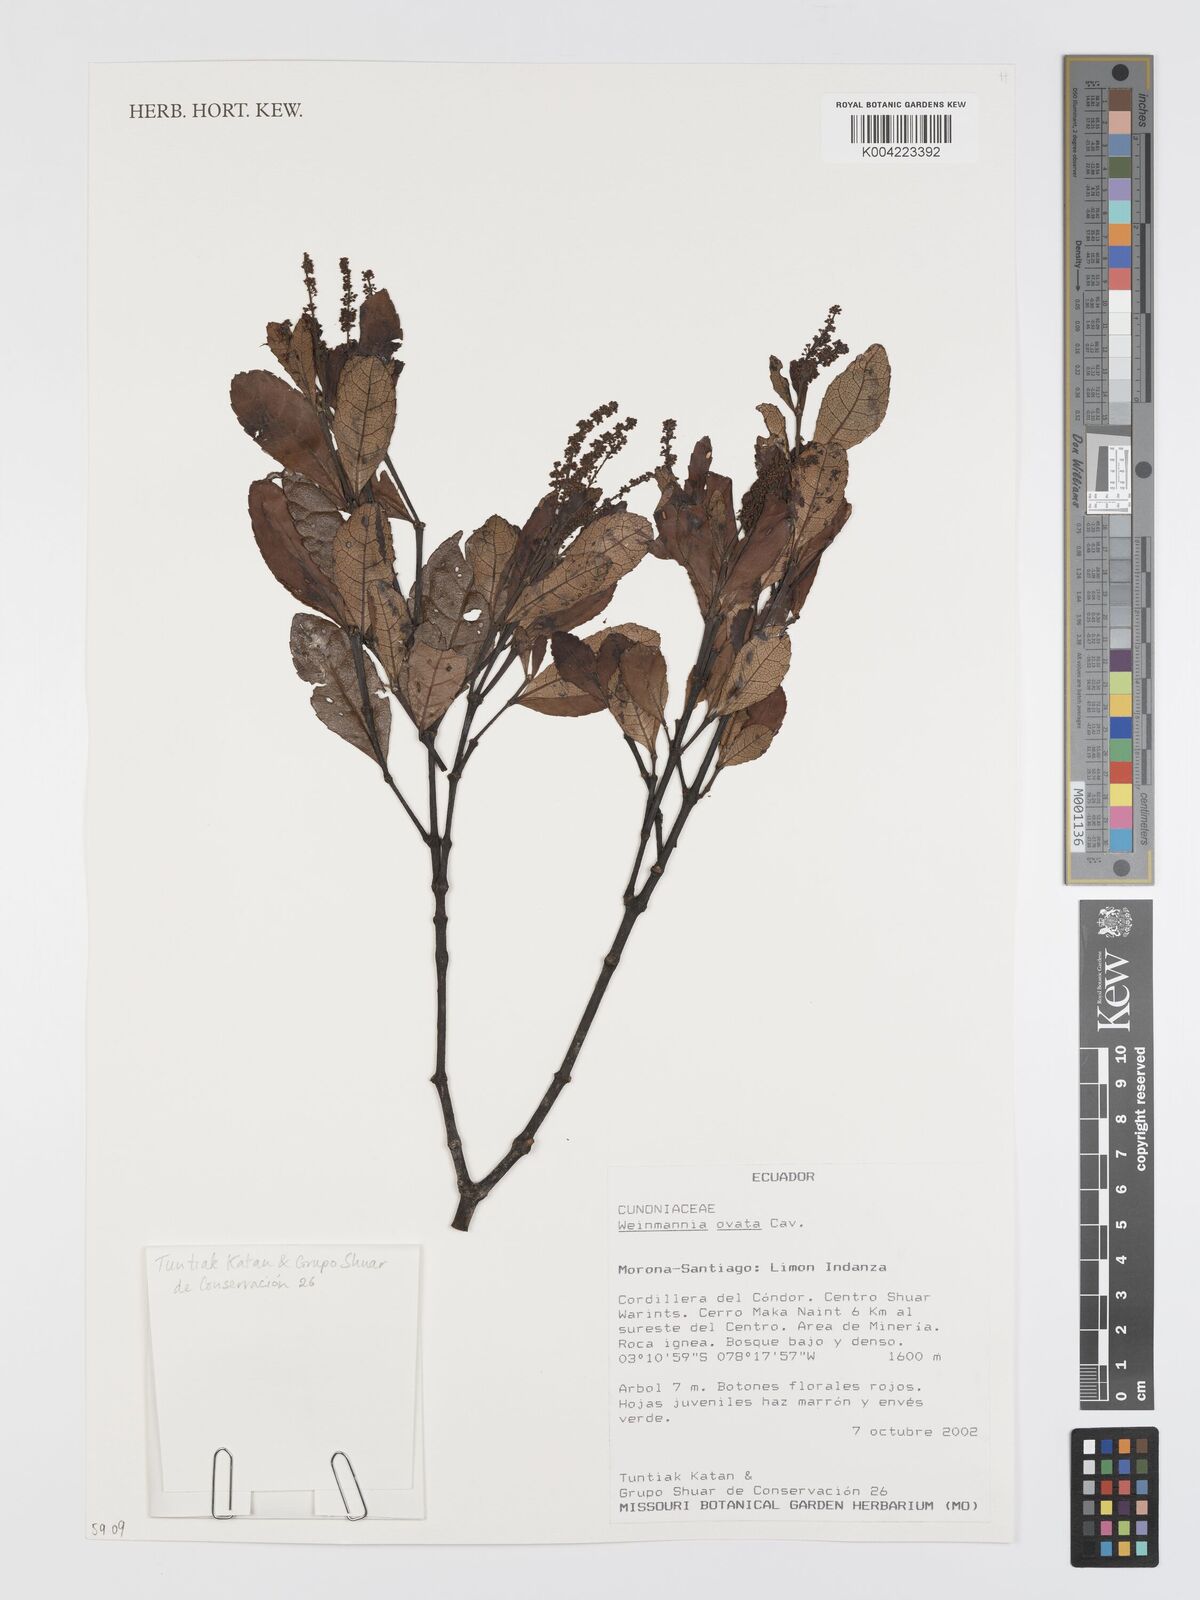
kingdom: Plantae
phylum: Tracheophyta
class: Magnoliopsida
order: Oxalidales
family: Cunoniaceae
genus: Weinmannia
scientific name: Weinmannia ovata
